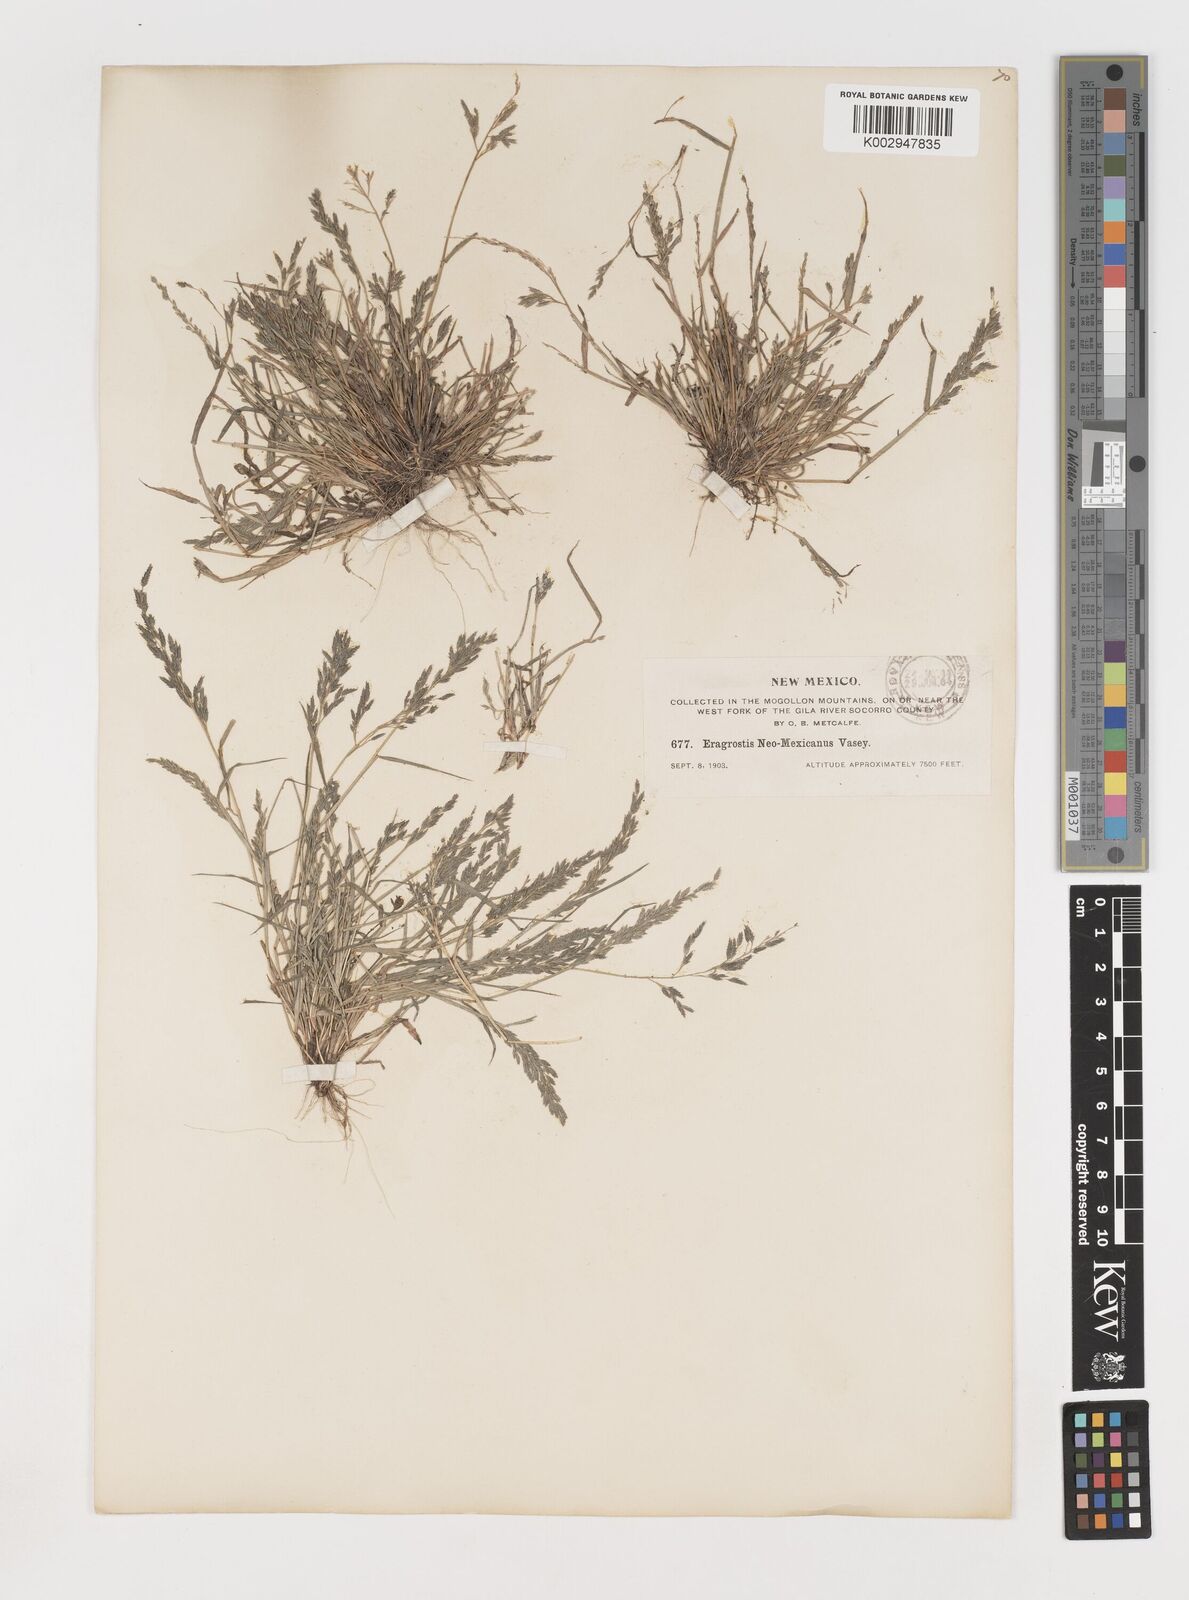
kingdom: Plantae
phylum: Tracheophyta
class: Liliopsida
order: Poales
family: Poaceae
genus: Eragrostis
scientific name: Eragrostis pectinacea
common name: Tufted lovegrass
